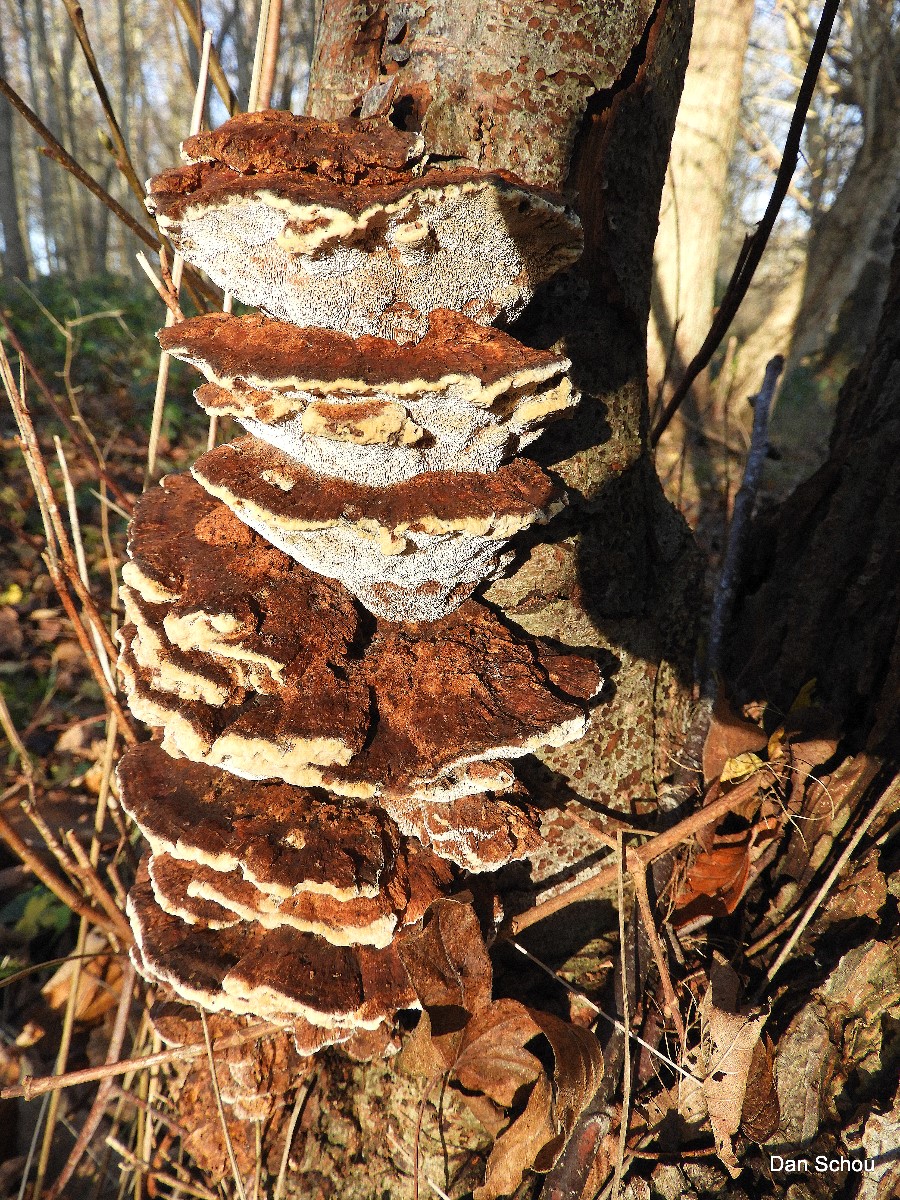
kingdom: Fungi
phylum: Basidiomycota
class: Agaricomycetes
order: Hymenochaetales
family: Hymenochaetaceae
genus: Xanthoporia
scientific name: Xanthoporia radiata
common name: elle-spejlporesvamp
